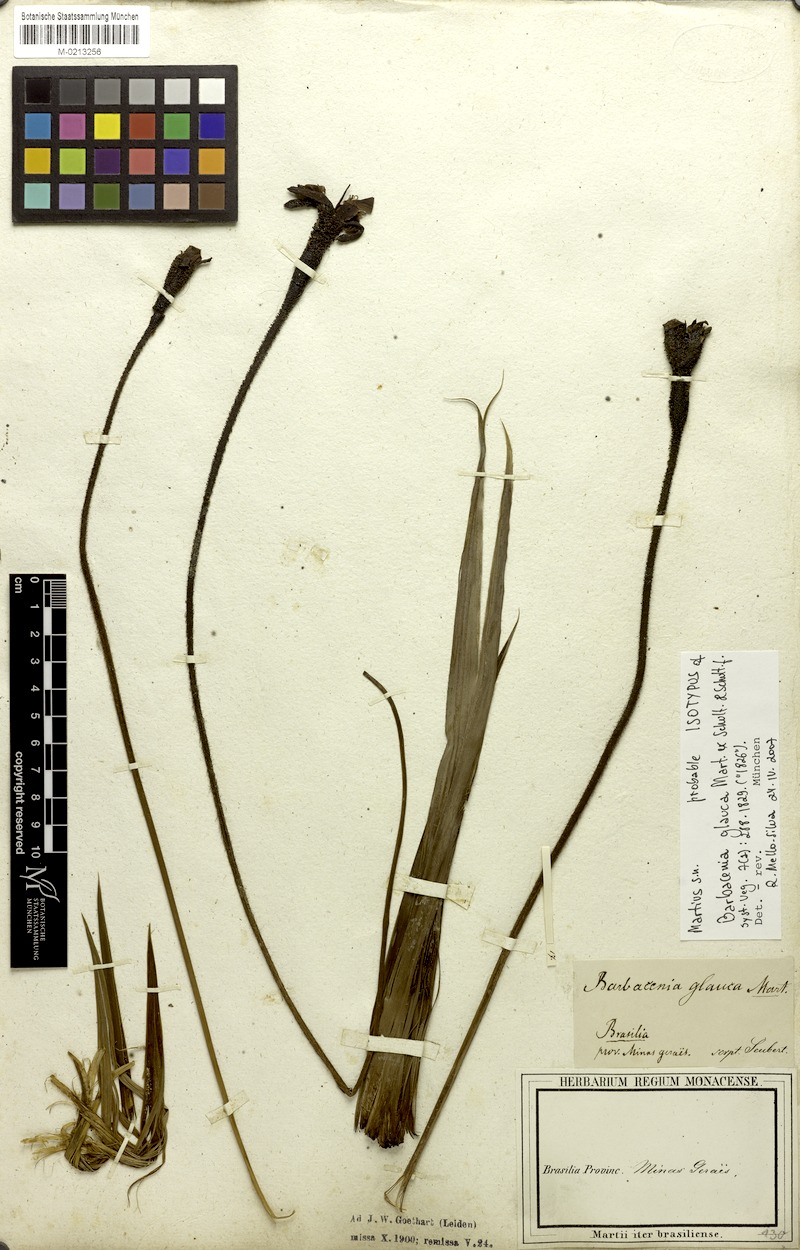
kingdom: Plantae
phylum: Tracheophyta
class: Liliopsida
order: Pandanales
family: Velloziaceae
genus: Barbacenia
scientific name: Barbacenia glauca
